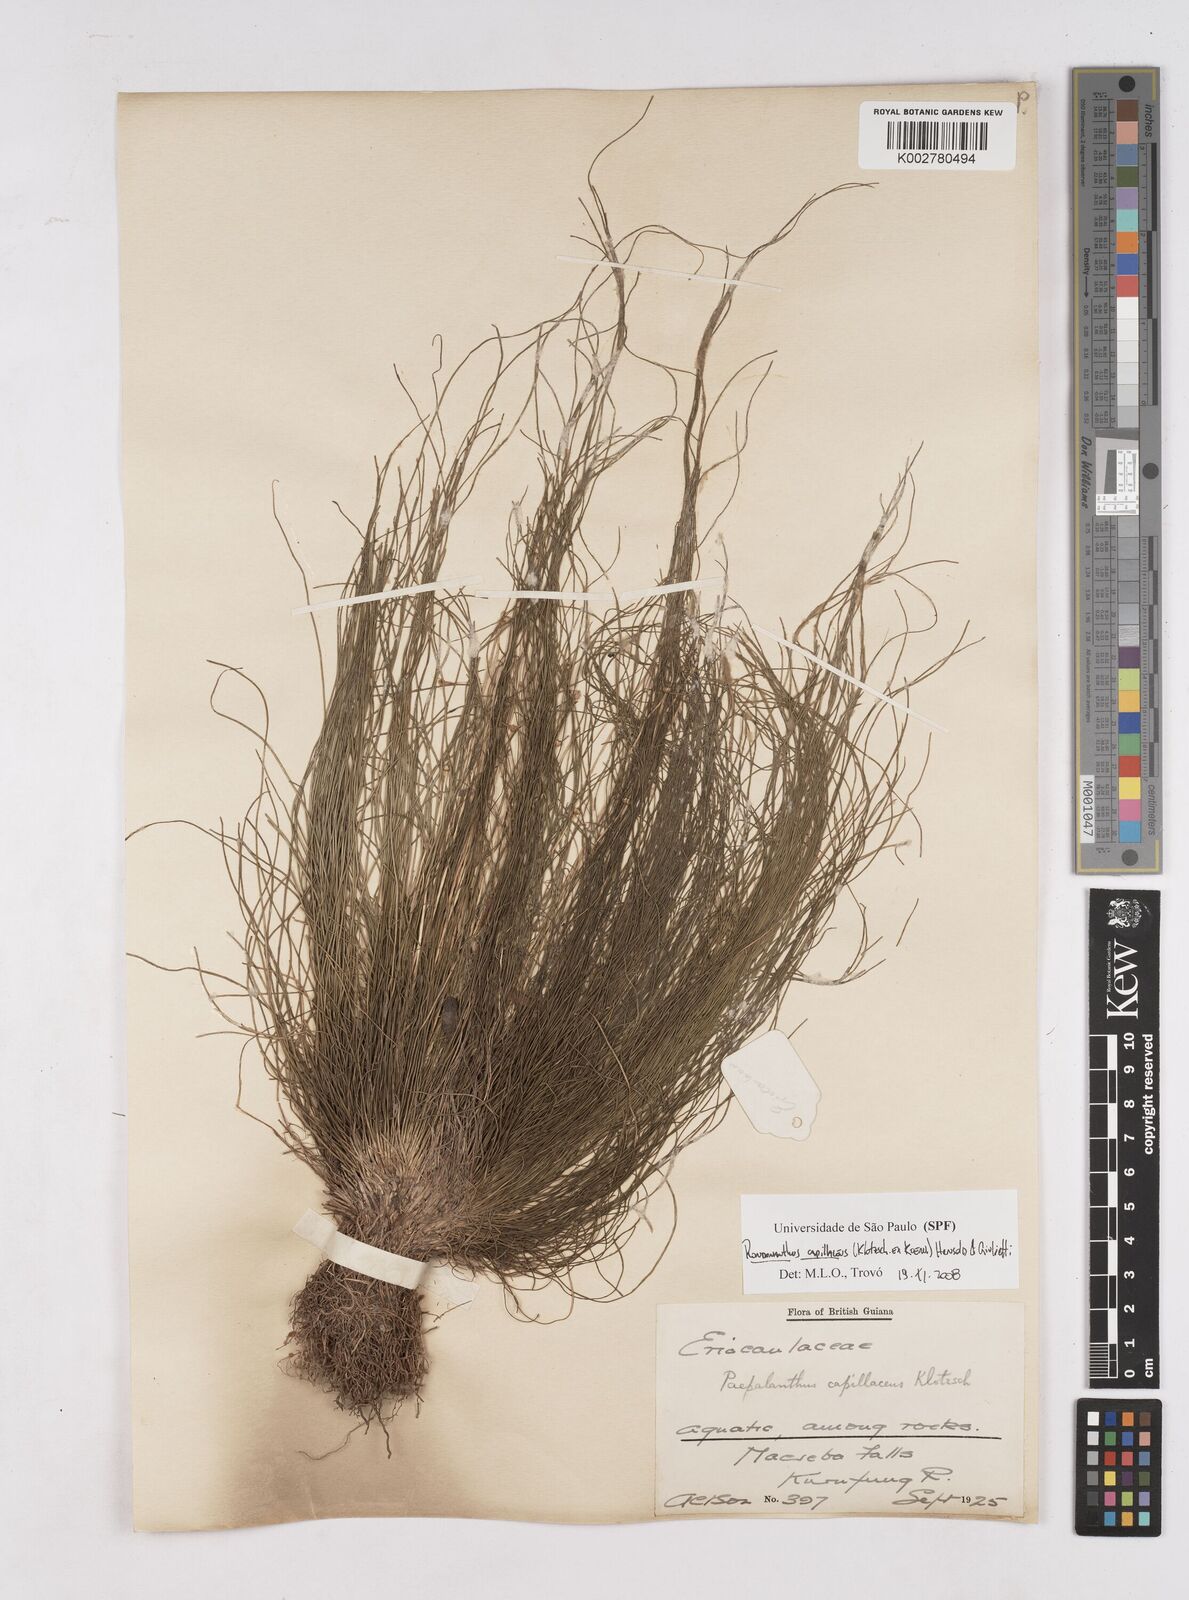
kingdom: Plantae
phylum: Tracheophyta
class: Liliopsida
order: Poales
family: Eriocaulaceae
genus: Rondonanthus
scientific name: Rondonanthus capillaceus
